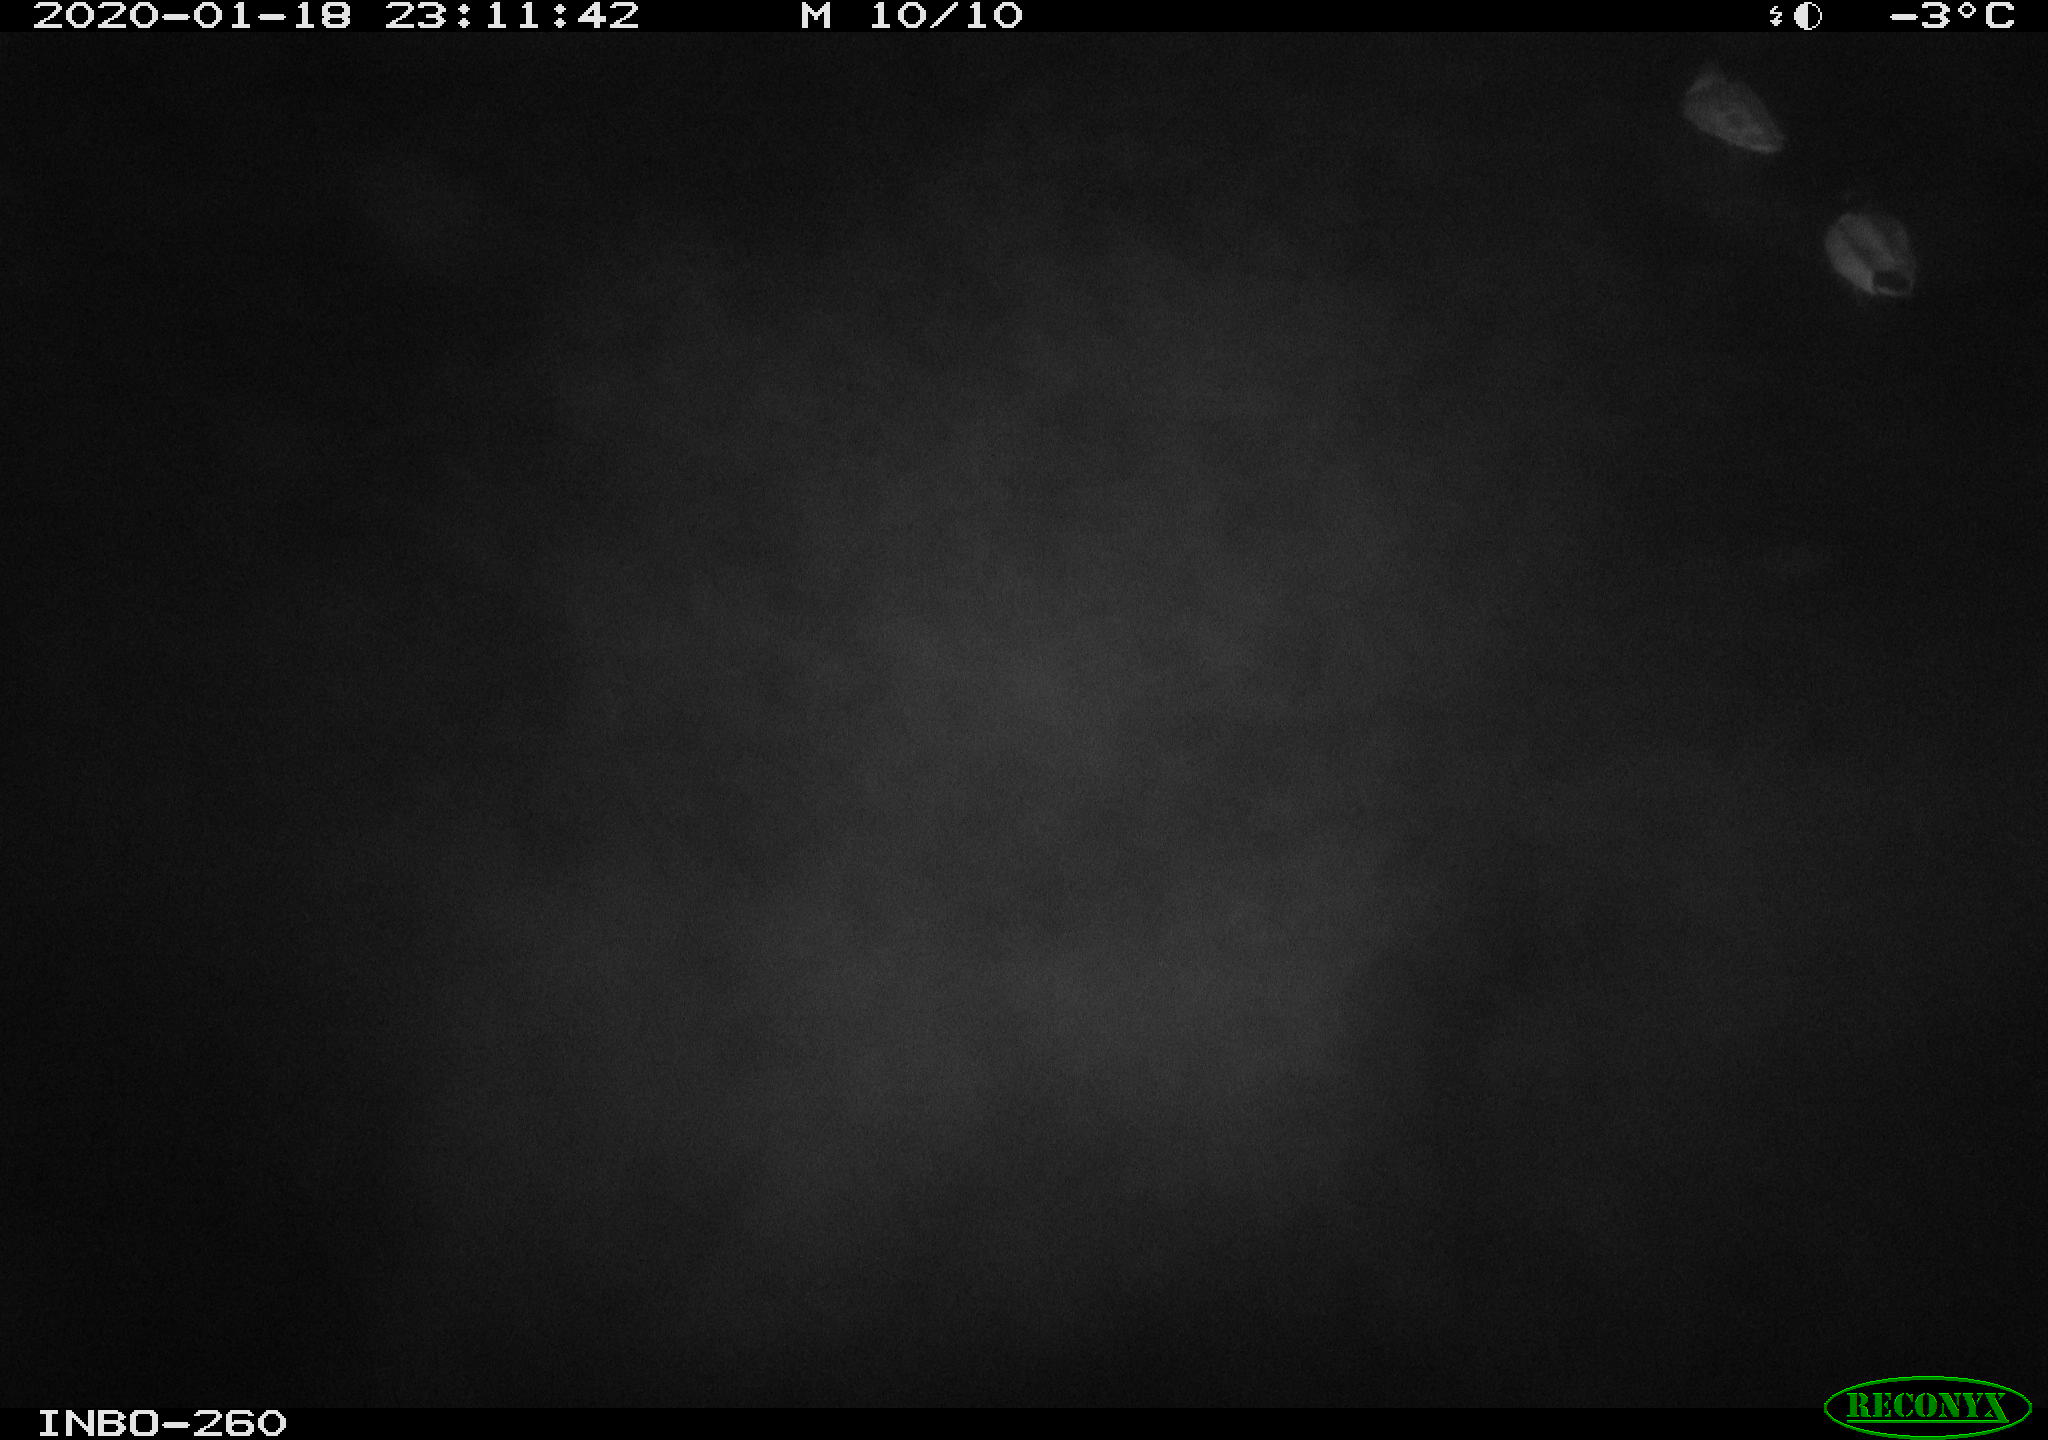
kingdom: Animalia
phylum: Chordata
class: Aves
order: Anseriformes
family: Anatidae
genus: Anas
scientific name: Anas platyrhynchos
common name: Mallard
